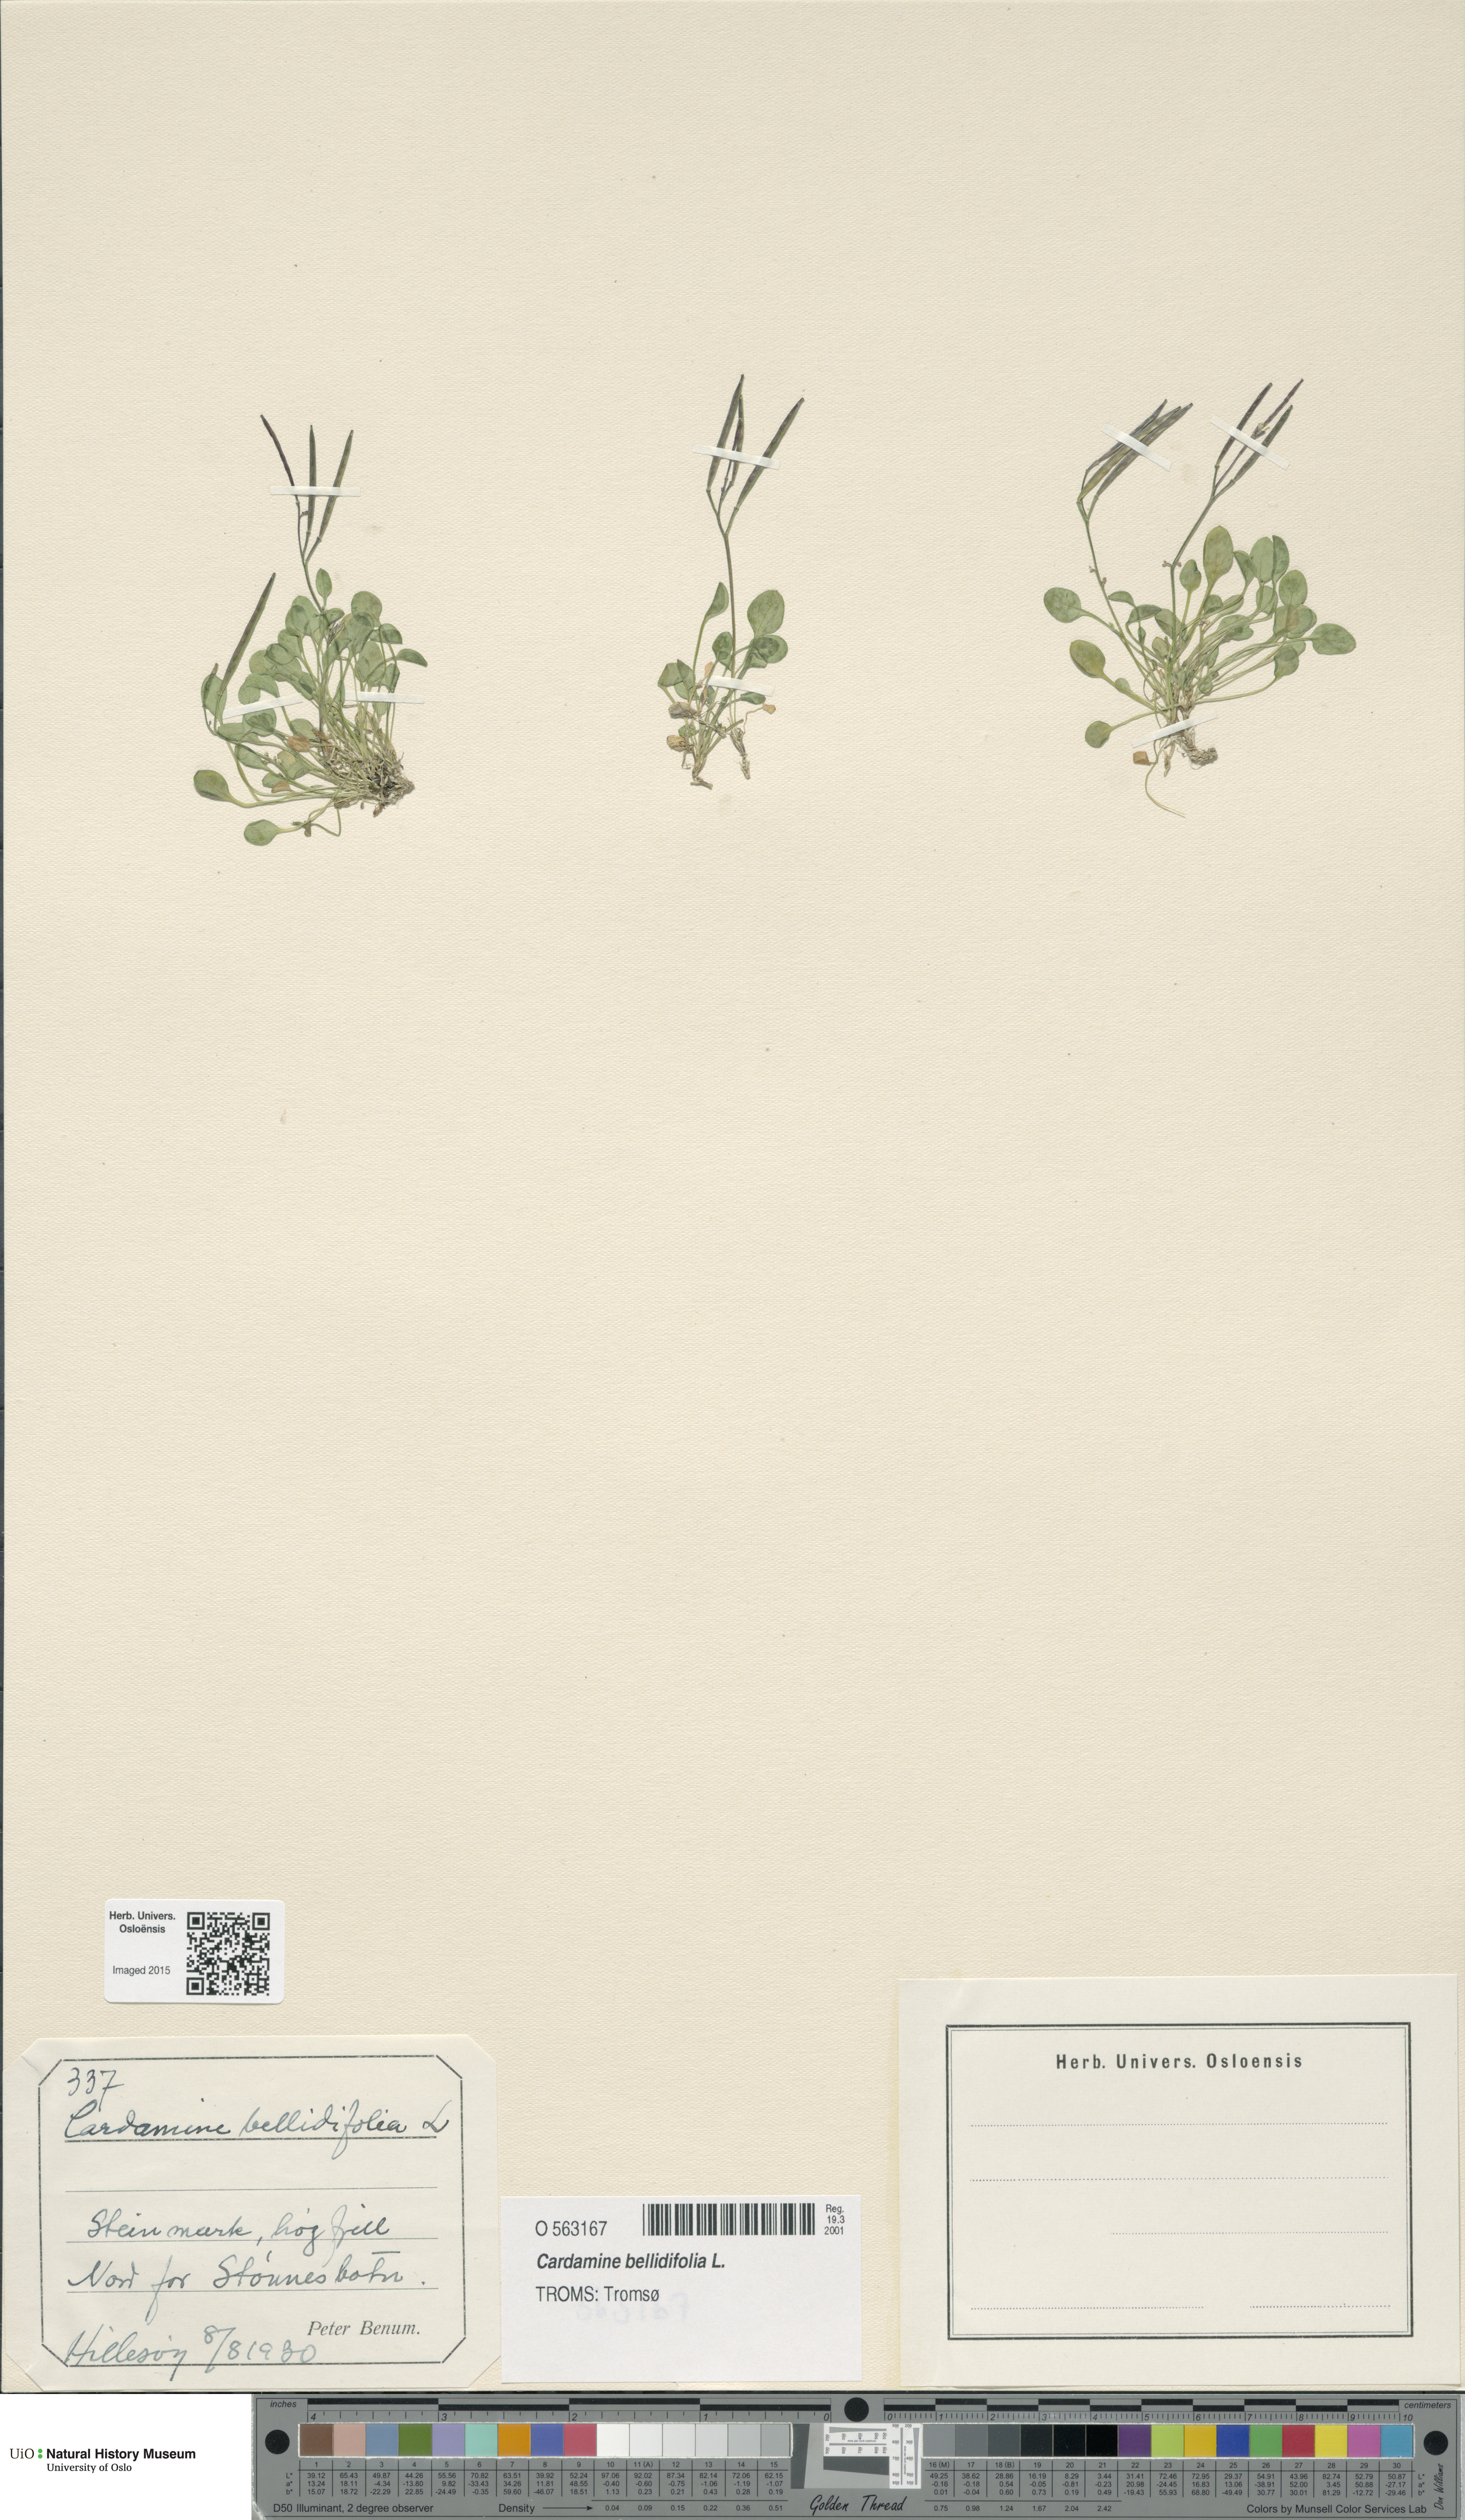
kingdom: Plantae
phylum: Tracheophyta
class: Magnoliopsida
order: Brassicales
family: Brassicaceae
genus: Cardamine
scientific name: Cardamine bellidifolia
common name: Alpine bittercress
